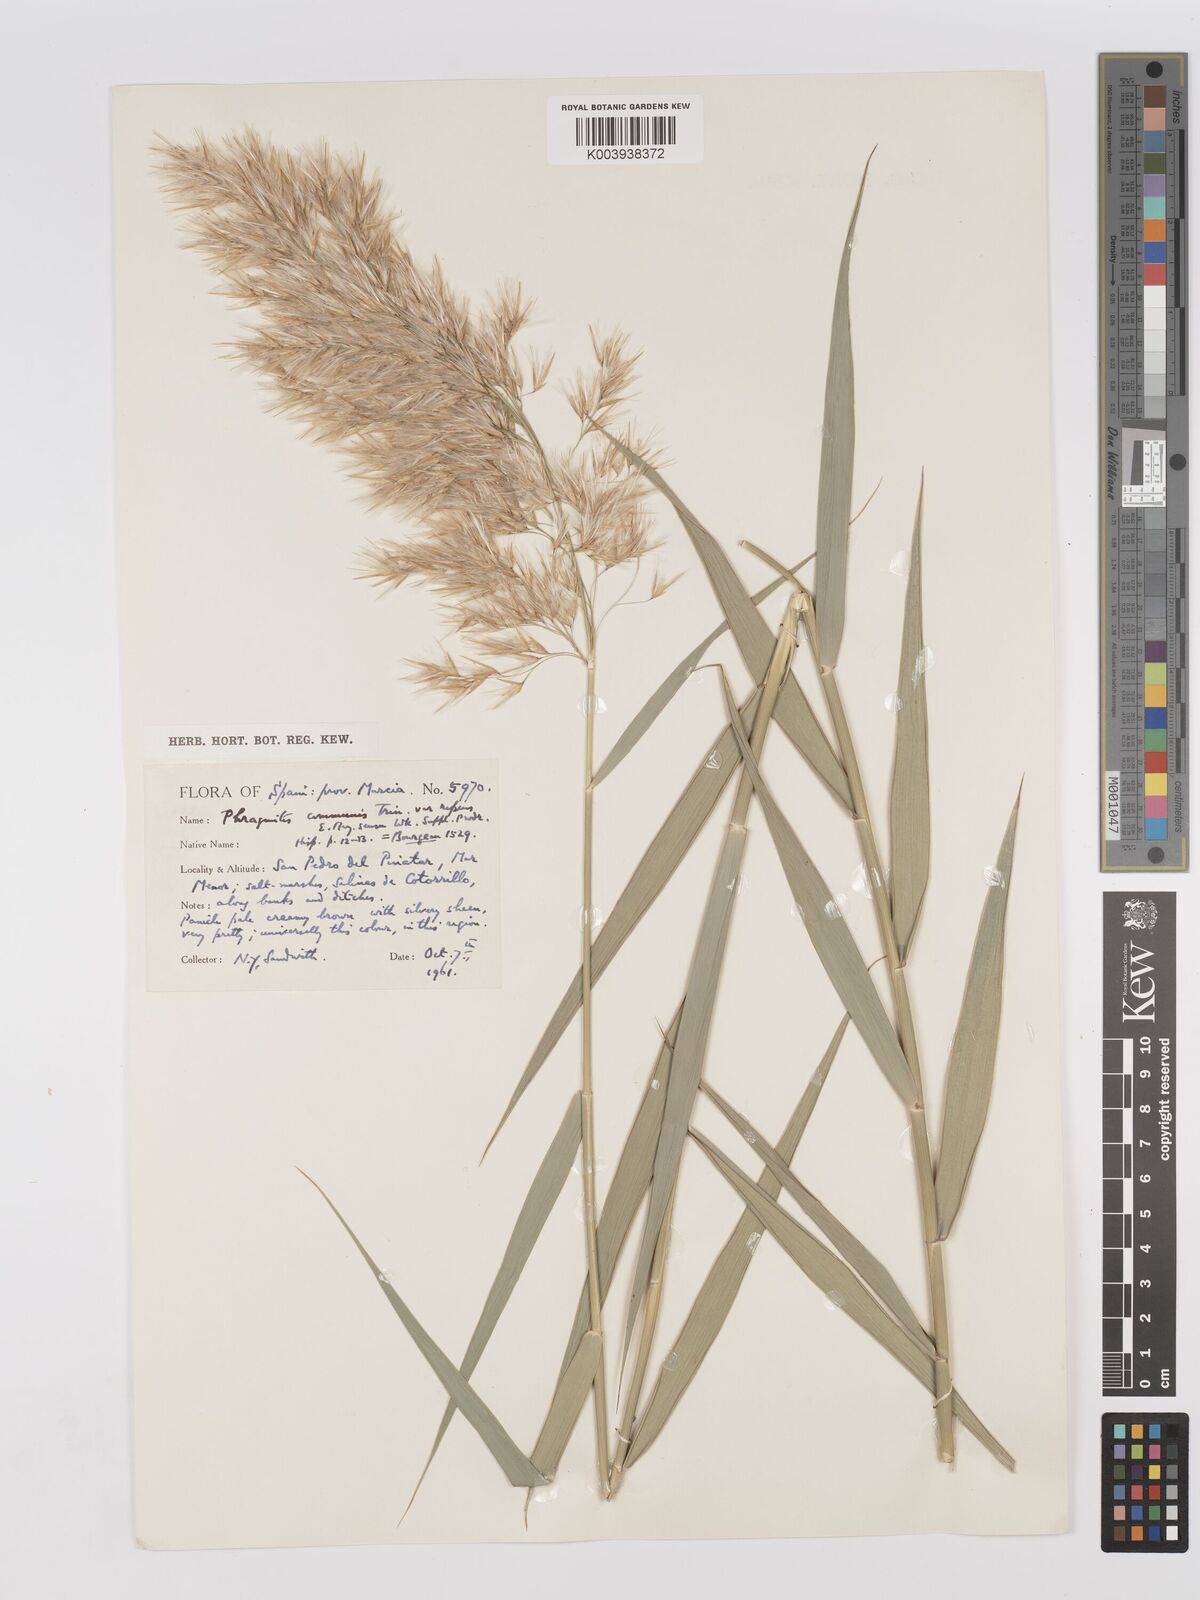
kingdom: Plantae
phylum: Tracheophyta
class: Liliopsida
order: Poales
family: Poaceae
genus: Phragmites
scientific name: Phragmites australis
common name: Common reed
